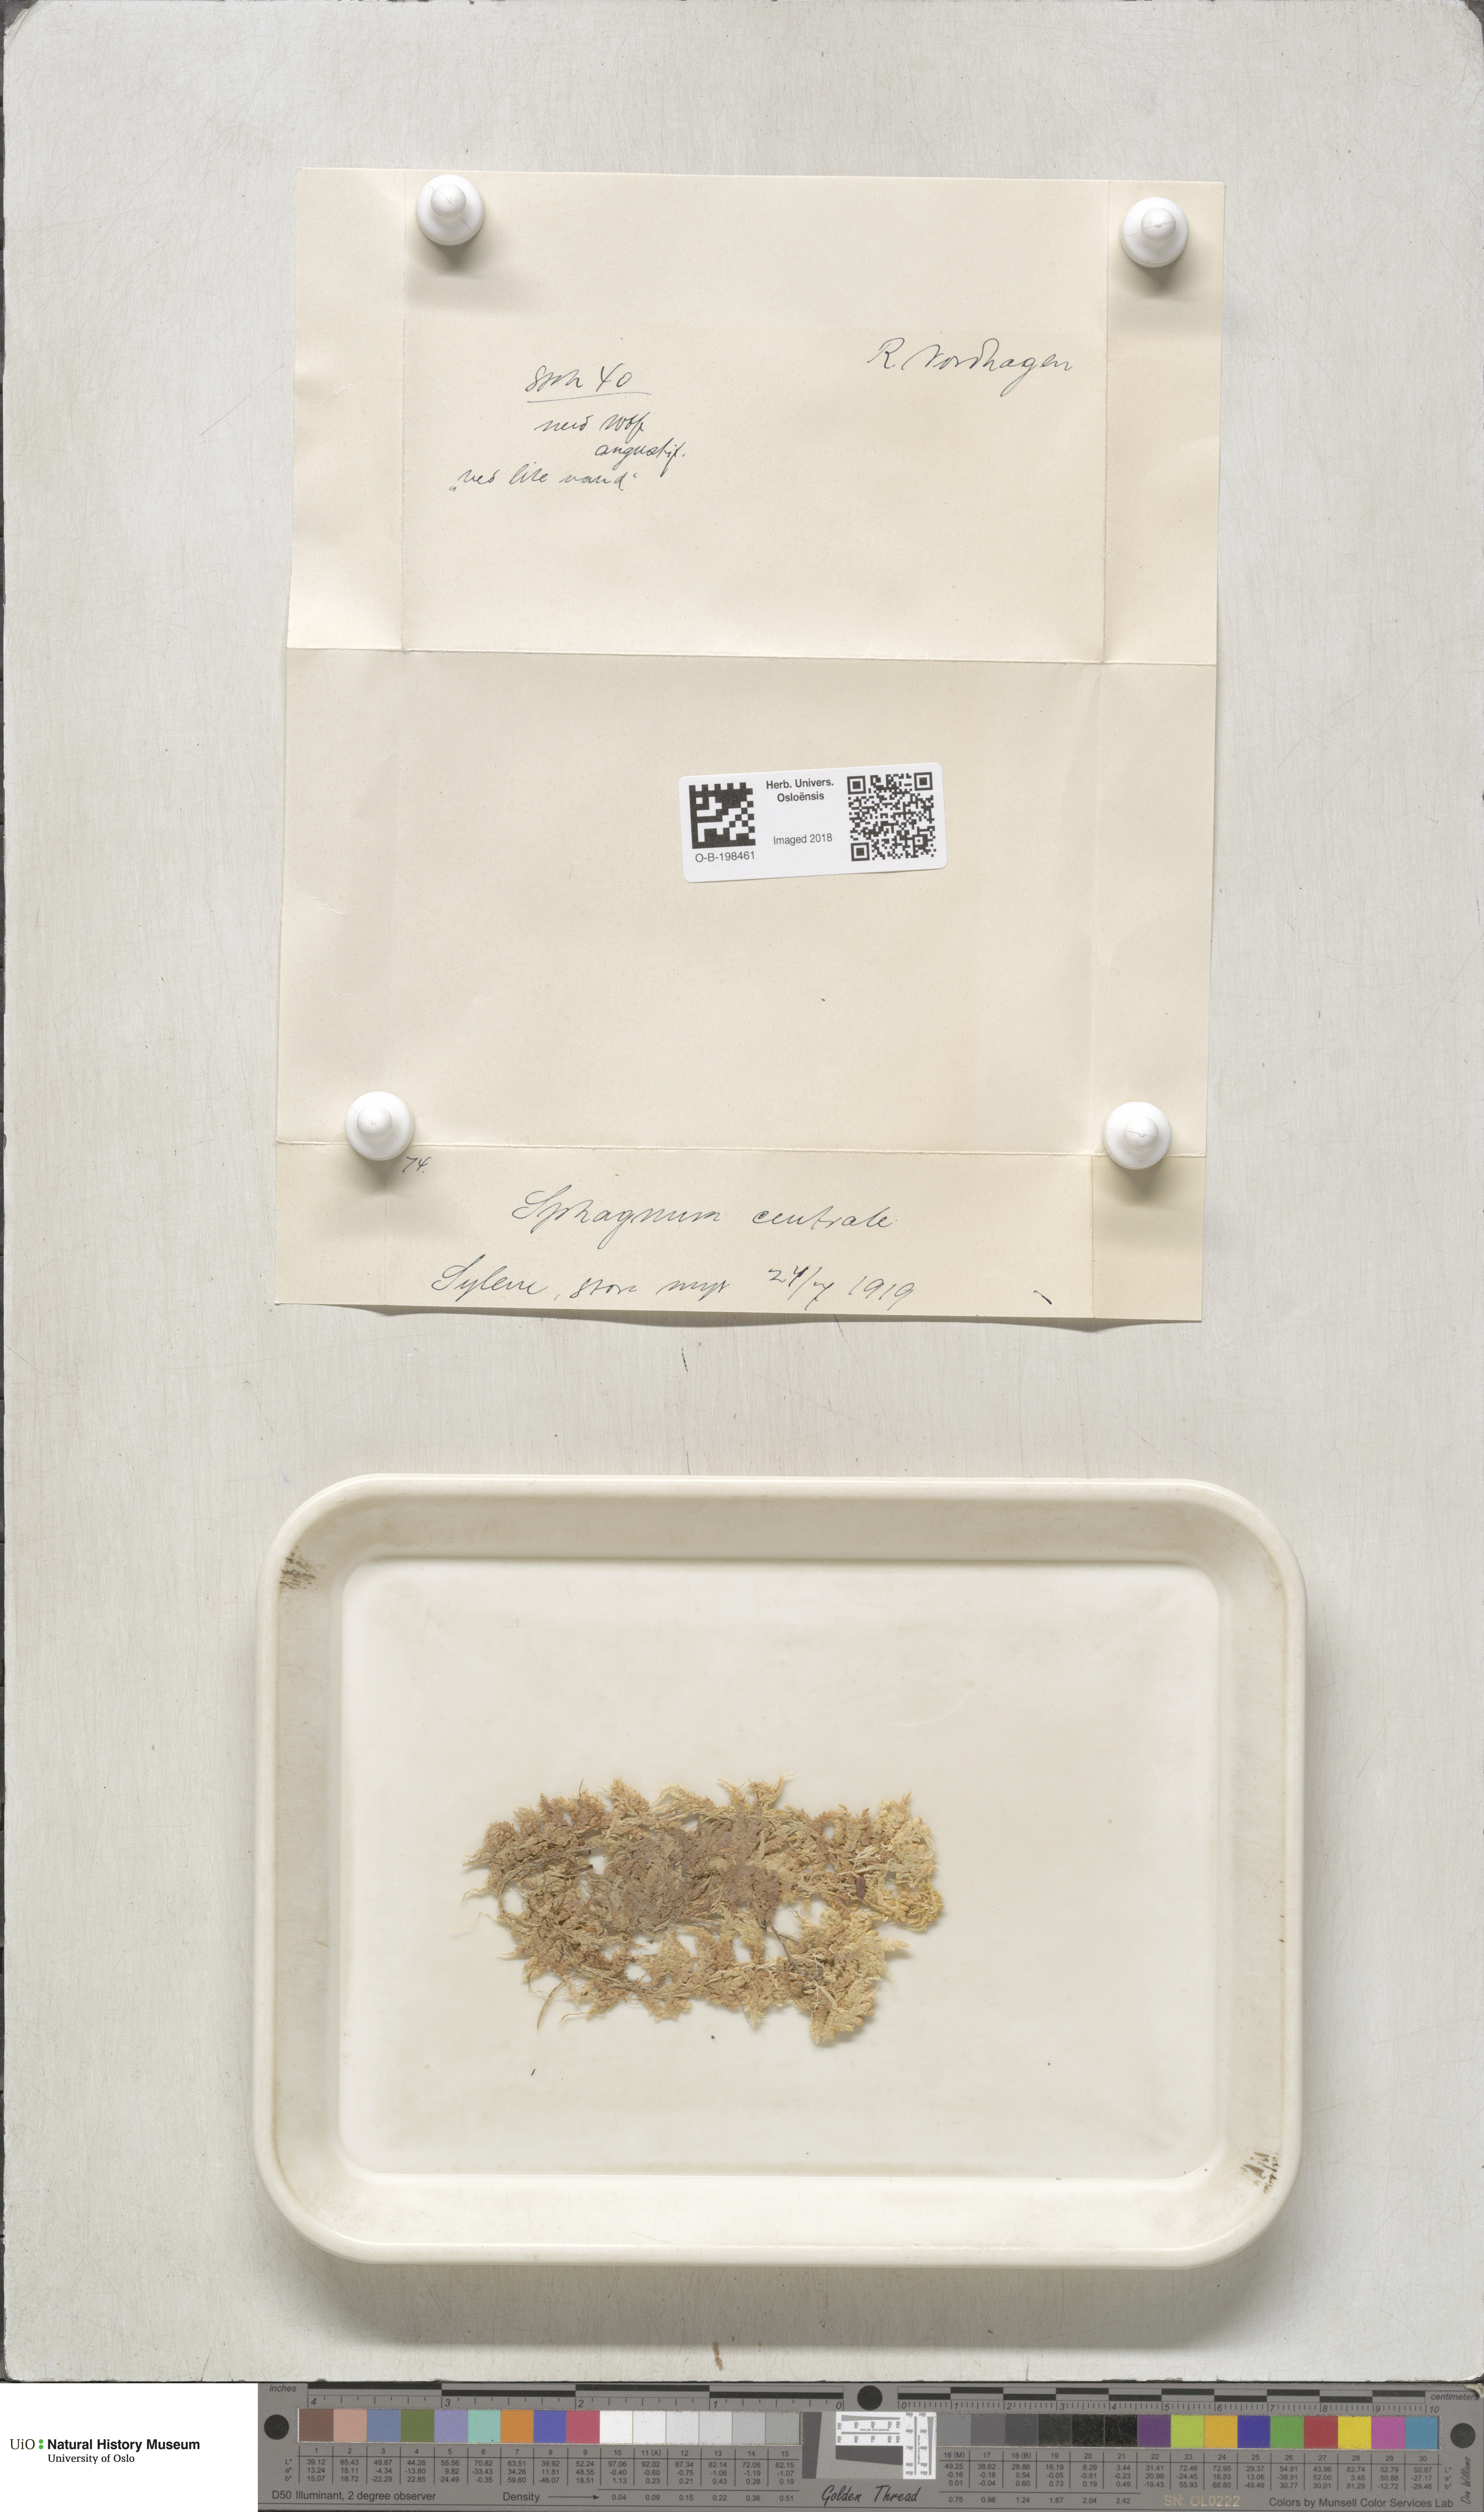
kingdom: Plantae
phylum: Bryophyta
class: Sphagnopsida
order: Sphagnales
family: Sphagnaceae
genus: Sphagnum
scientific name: Sphagnum centrale
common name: Central peat moss
